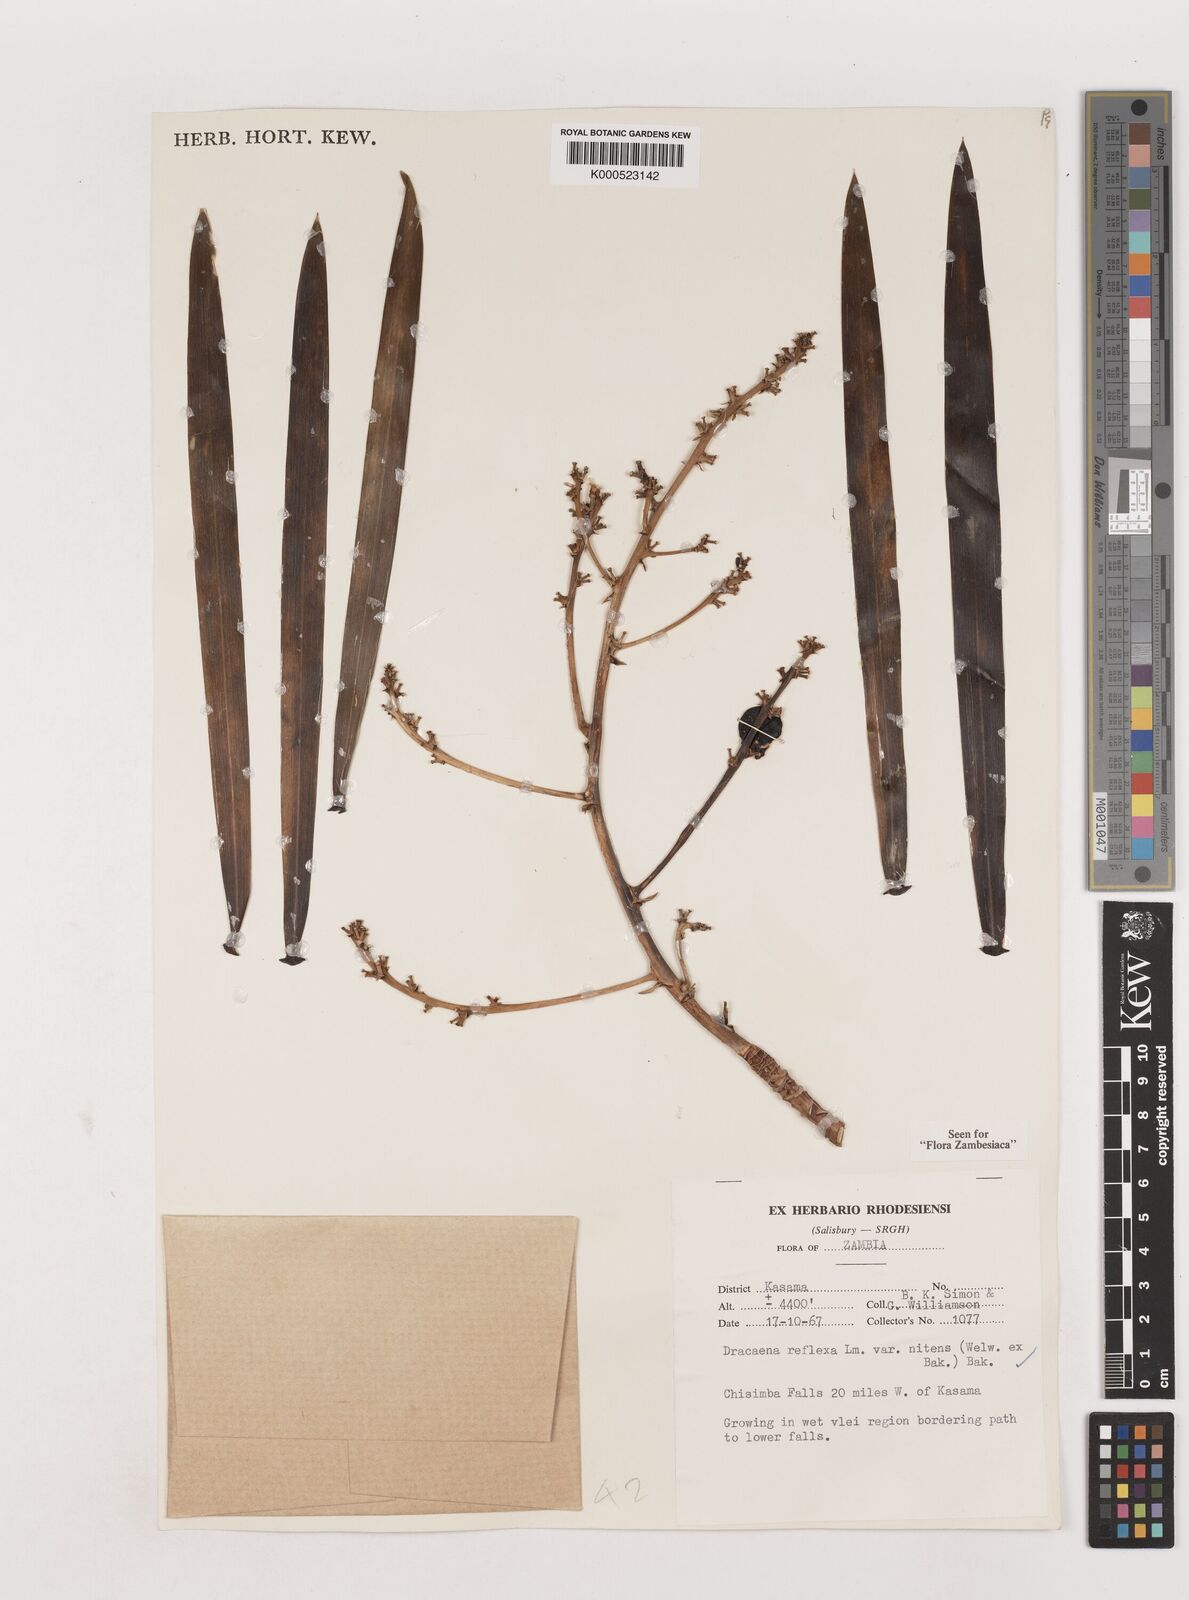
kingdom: Plantae
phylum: Tracheophyta
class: Liliopsida
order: Asparagales
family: Asparagaceae
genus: Dracaena
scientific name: Dracaena mannii
